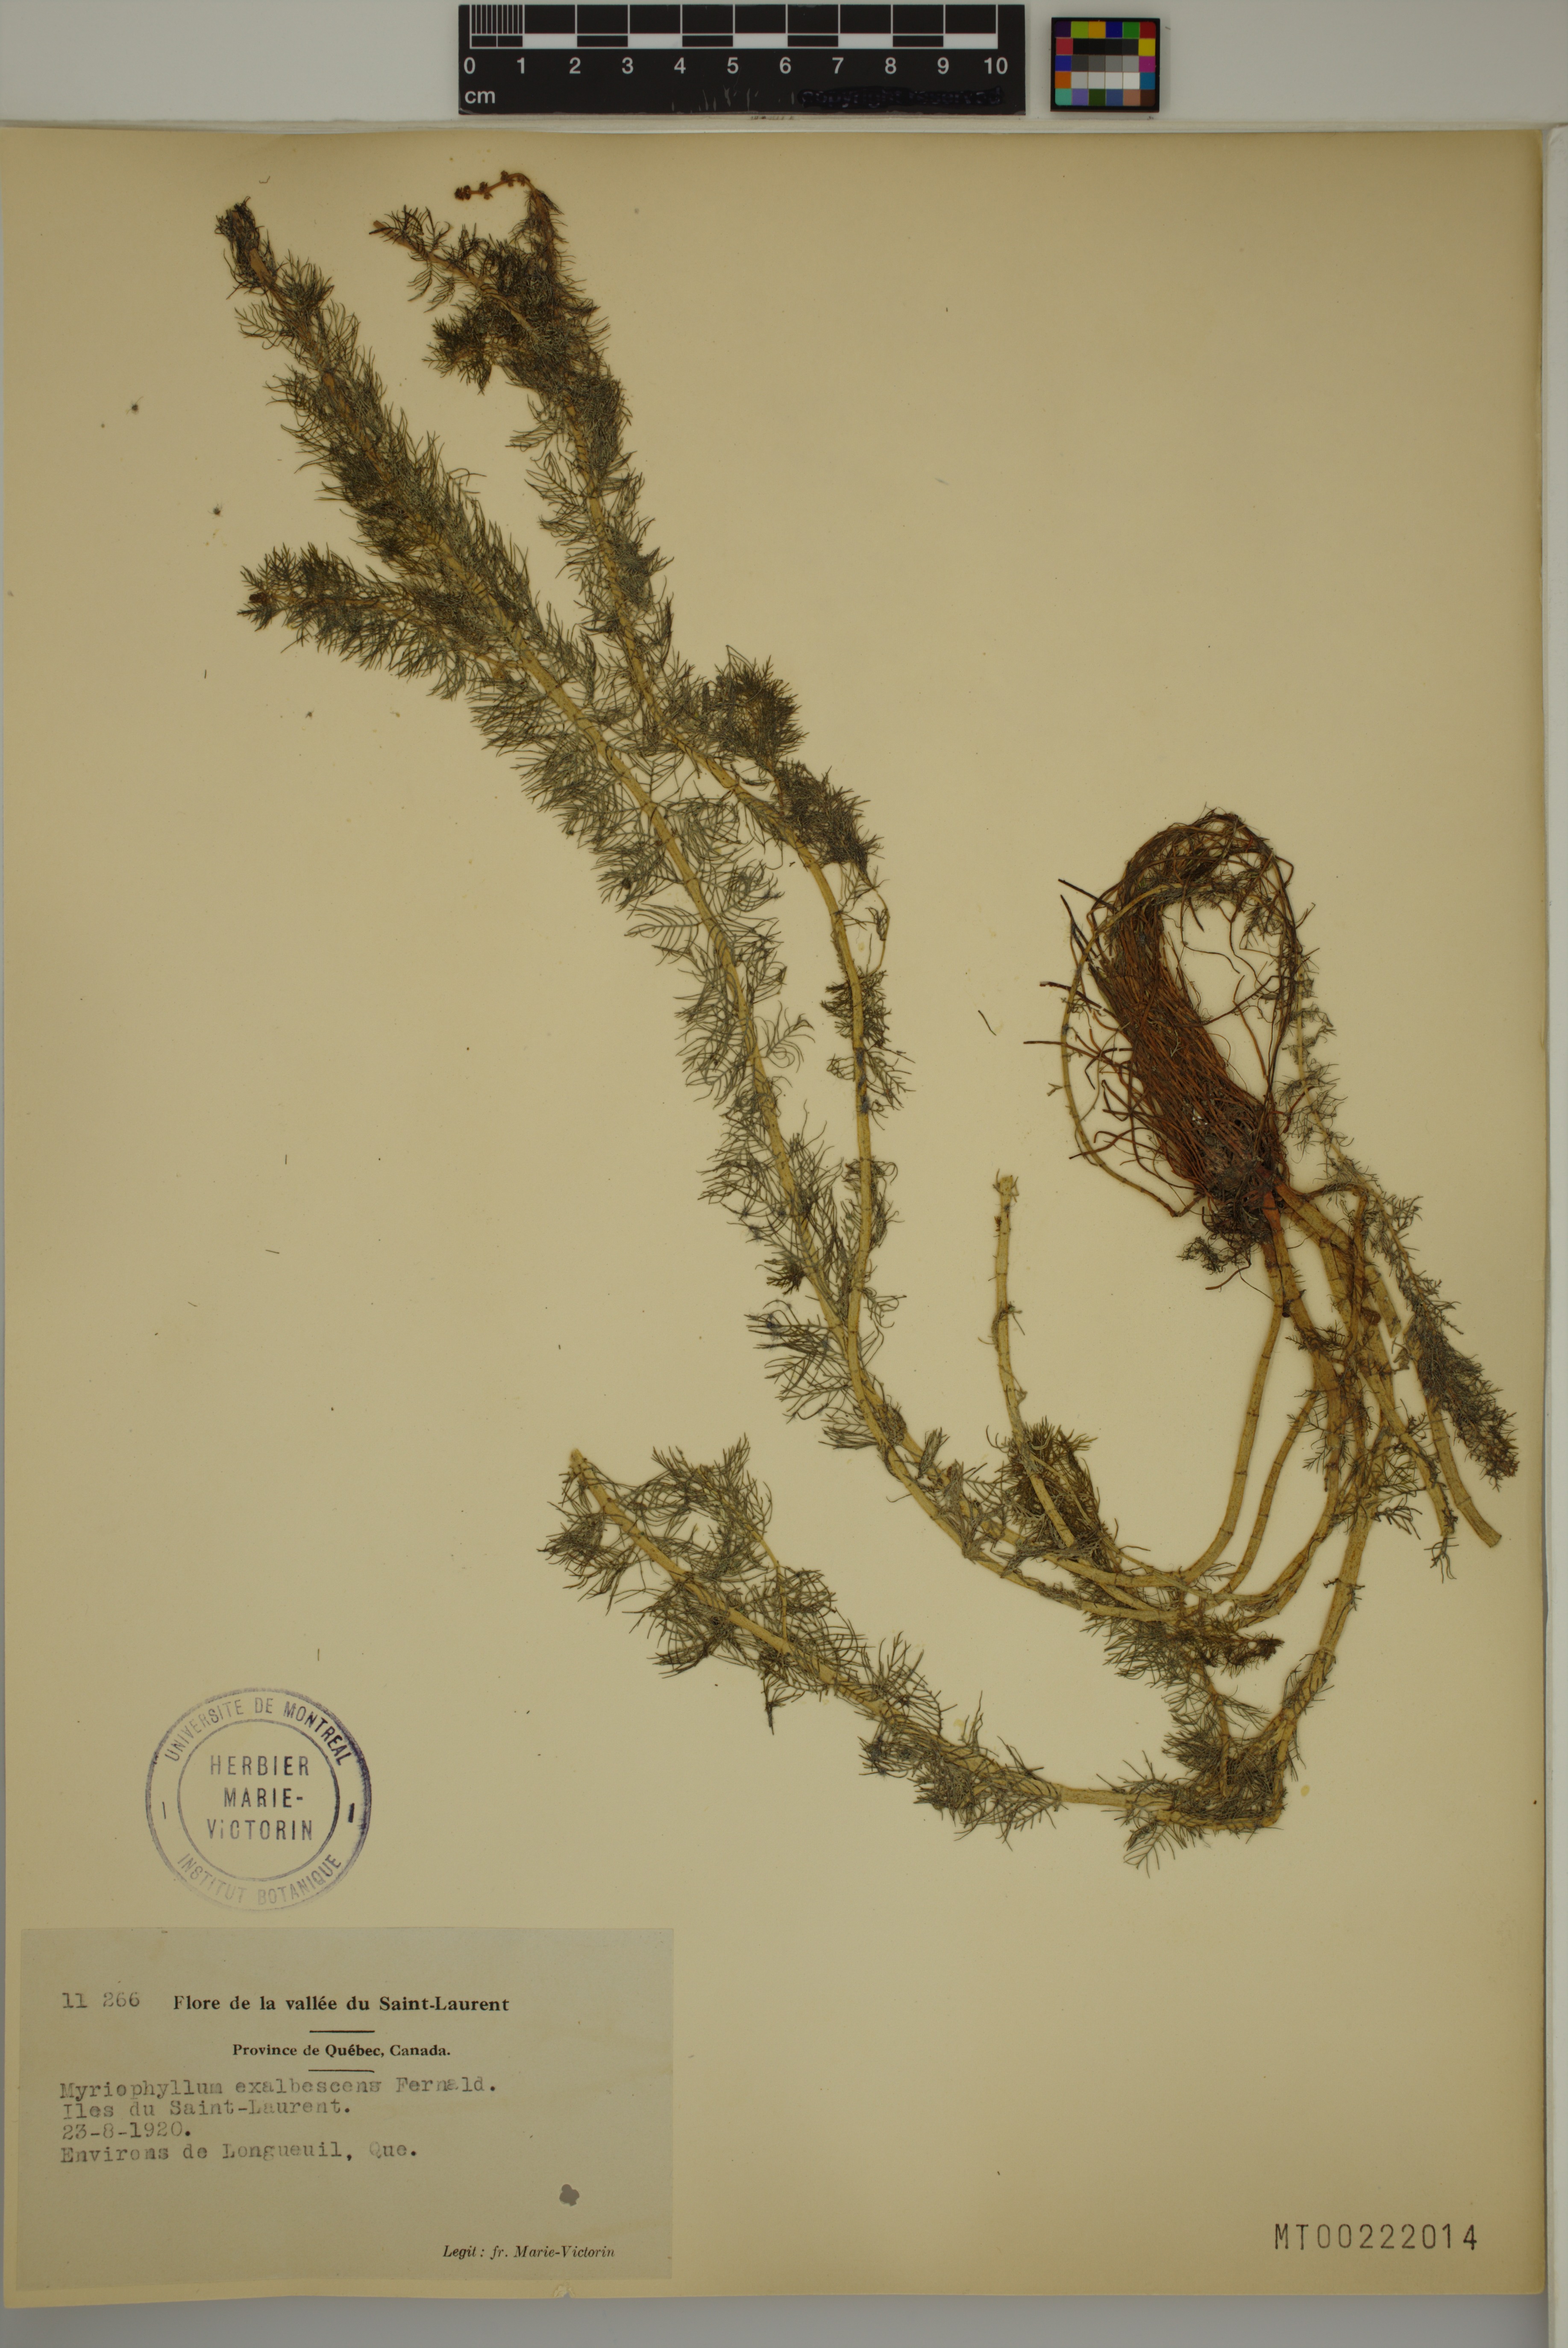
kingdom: Plantae
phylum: Tracheophyta
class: Magnoliopsida
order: Saxifragales
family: Haloragaceae
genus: Myriophyllum
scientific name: Myriophyllum sibiricum
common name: Siberian water-milfoil
